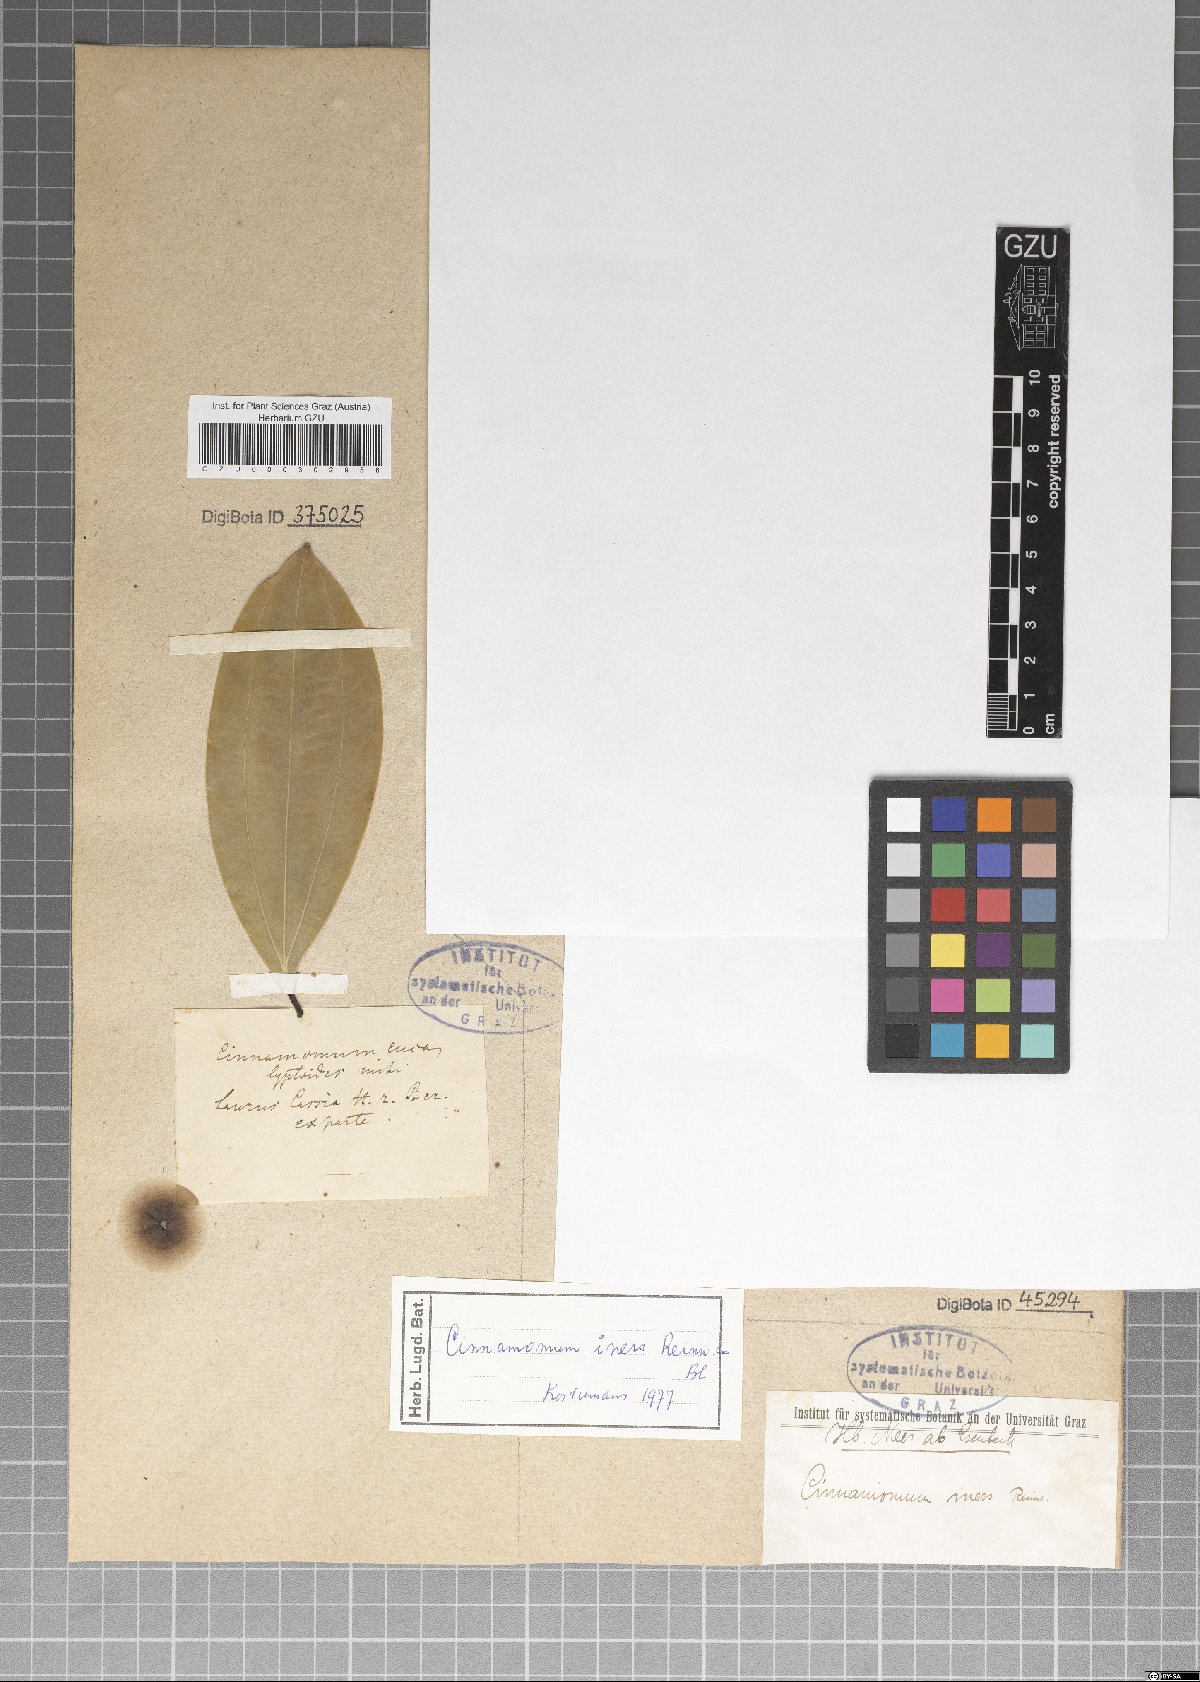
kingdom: Plantae
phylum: Tracheophyta
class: Magnoliopsida
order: Laurales
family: Lauraceae
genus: Cinnamomum
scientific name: Cinnamomum iners
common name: Wild cinnamon
